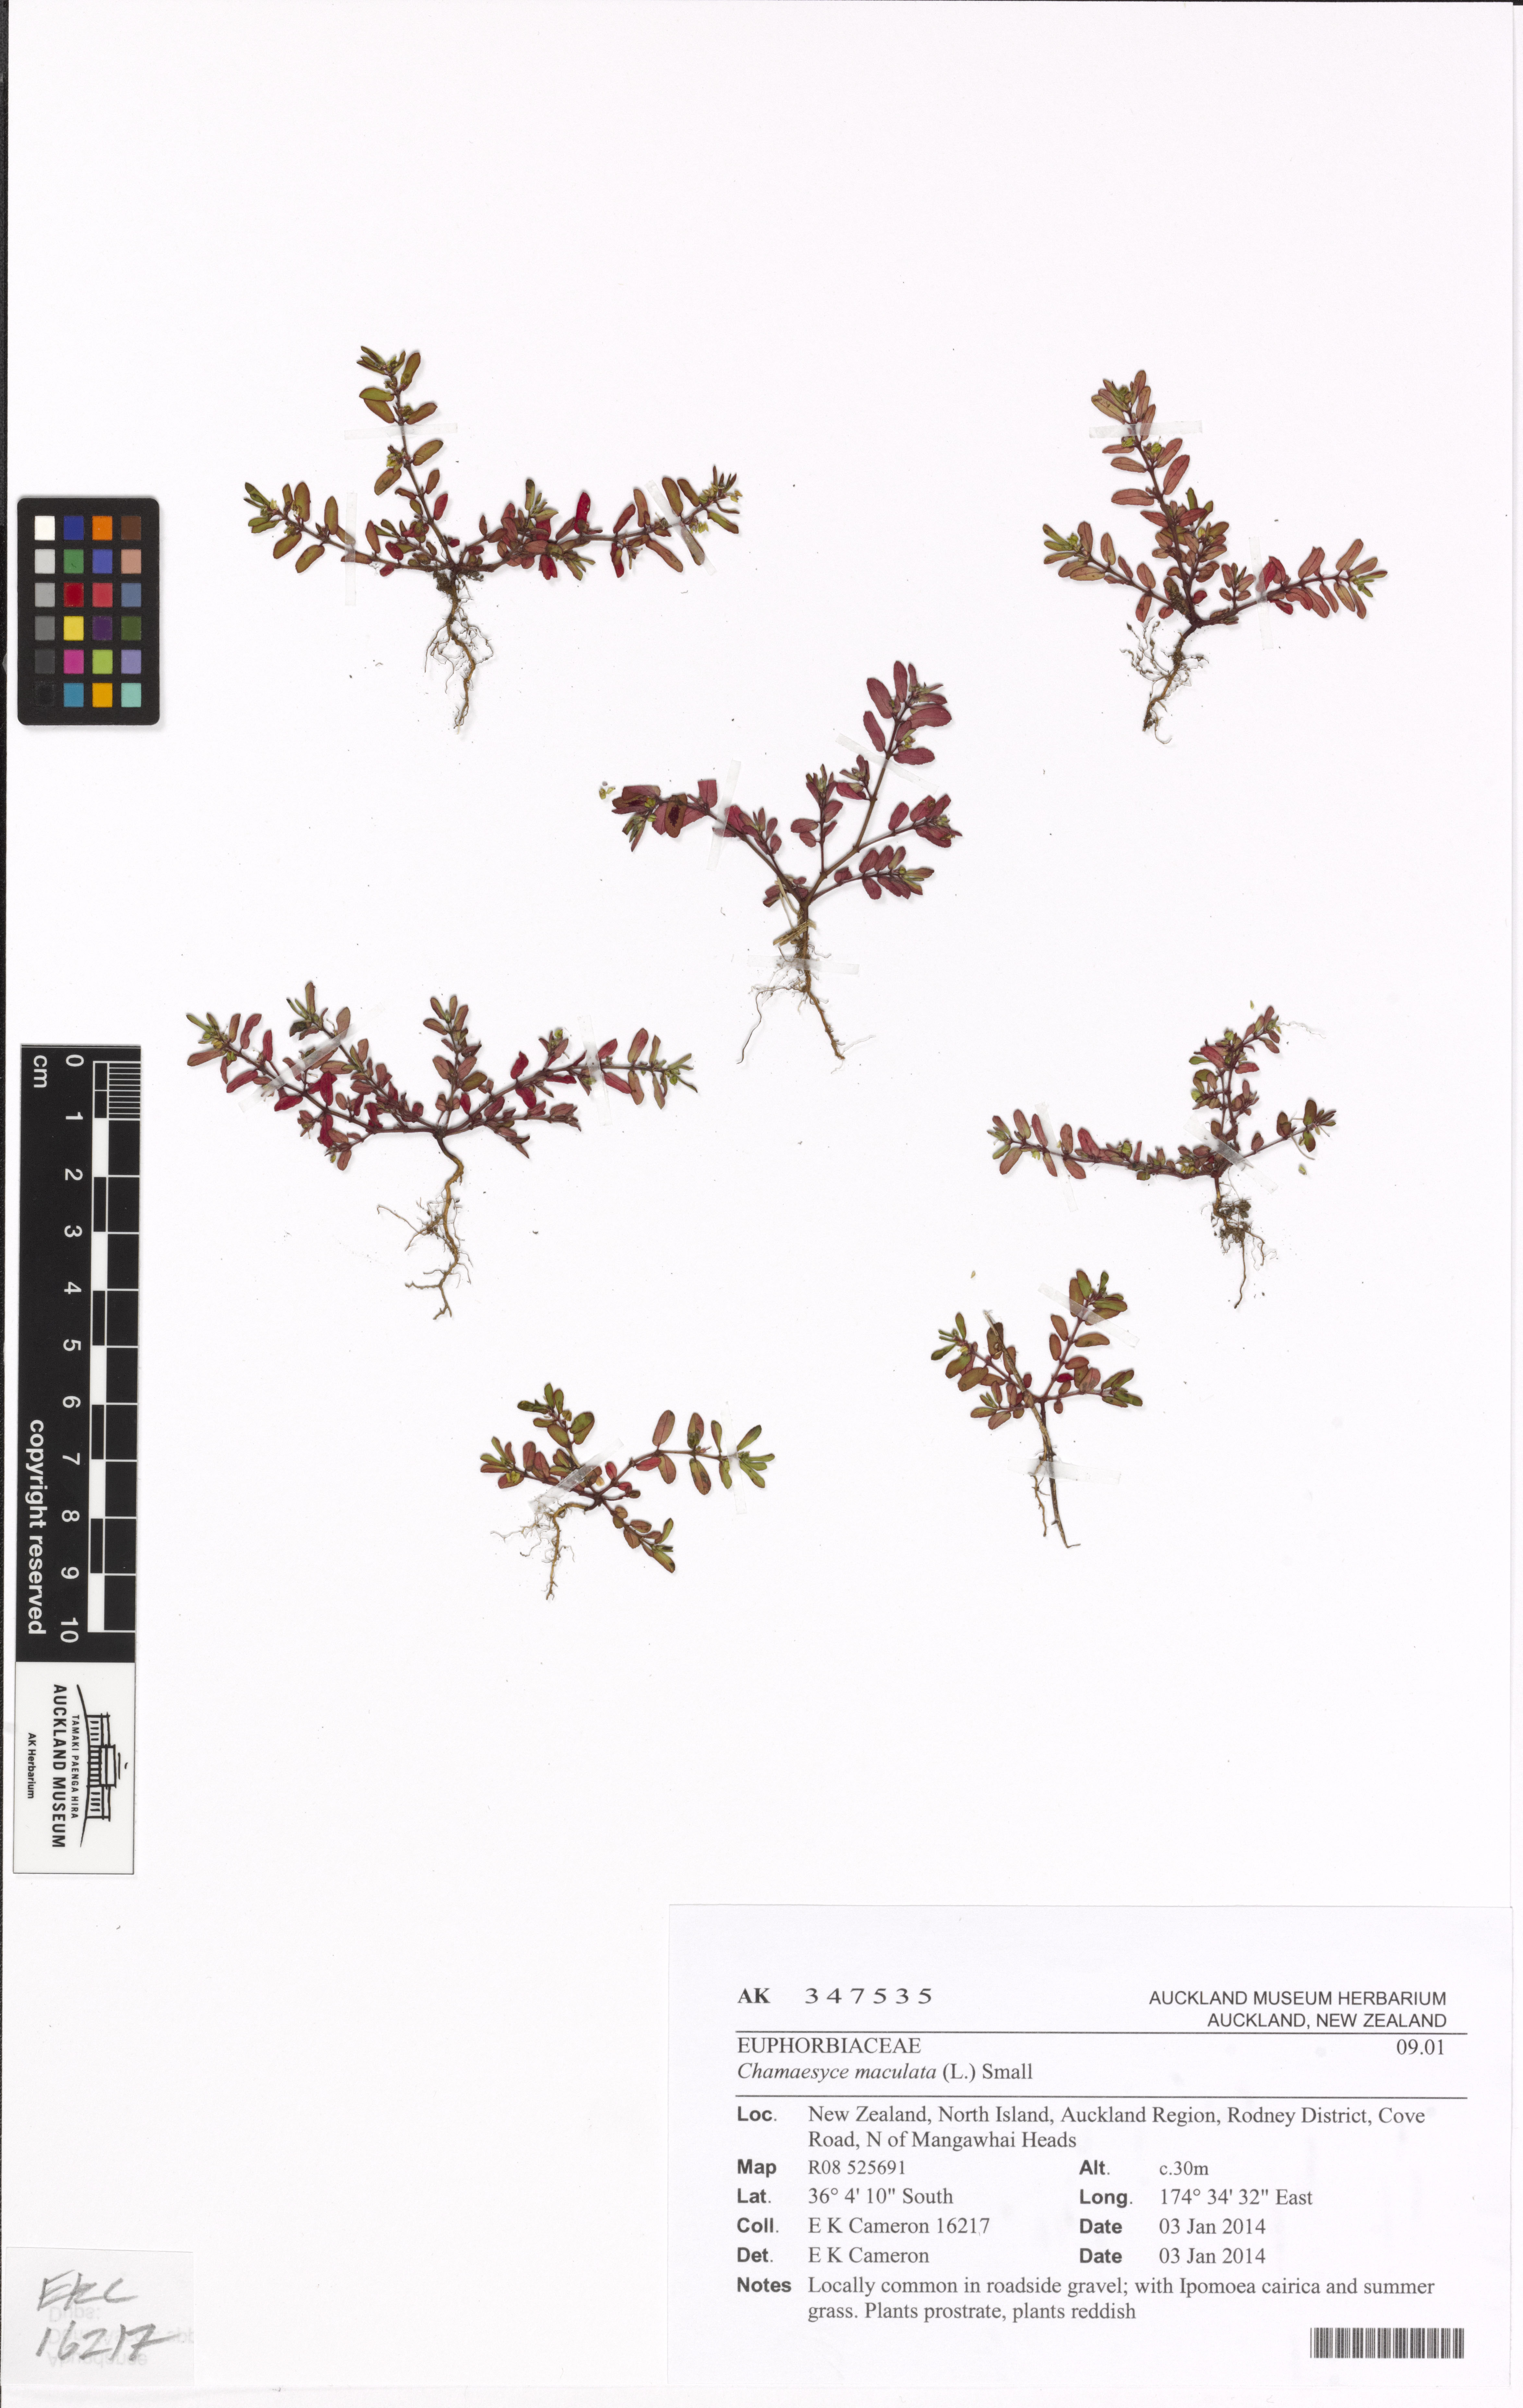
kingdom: Plantae
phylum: Tracheophyta
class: Magnoliopsida
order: Malpighiales
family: Euphorbiaceae
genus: Euphorbia
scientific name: Euphorbia maculata
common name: Spotted spurge
